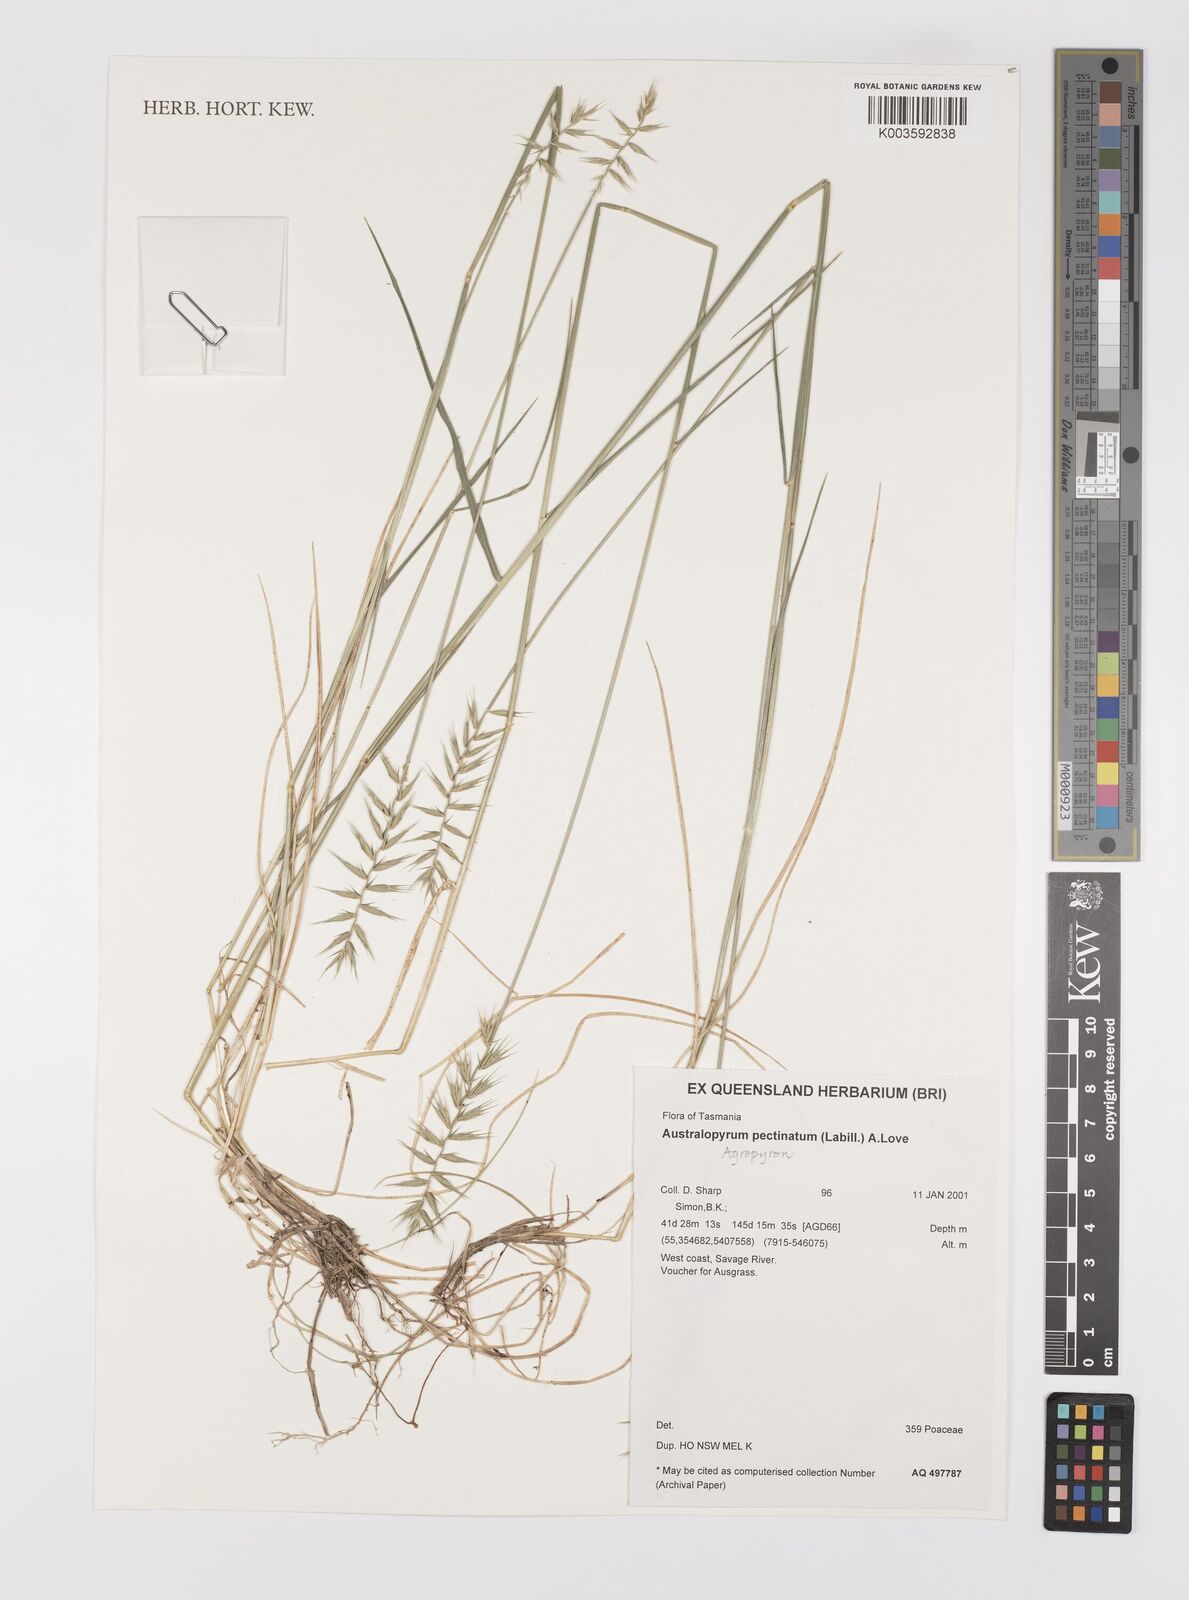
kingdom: Plantae
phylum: Tracheophyta
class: Liliopsida
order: Poales
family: Poaceae
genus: Australopyrum
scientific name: Australopyrum pectinatum
